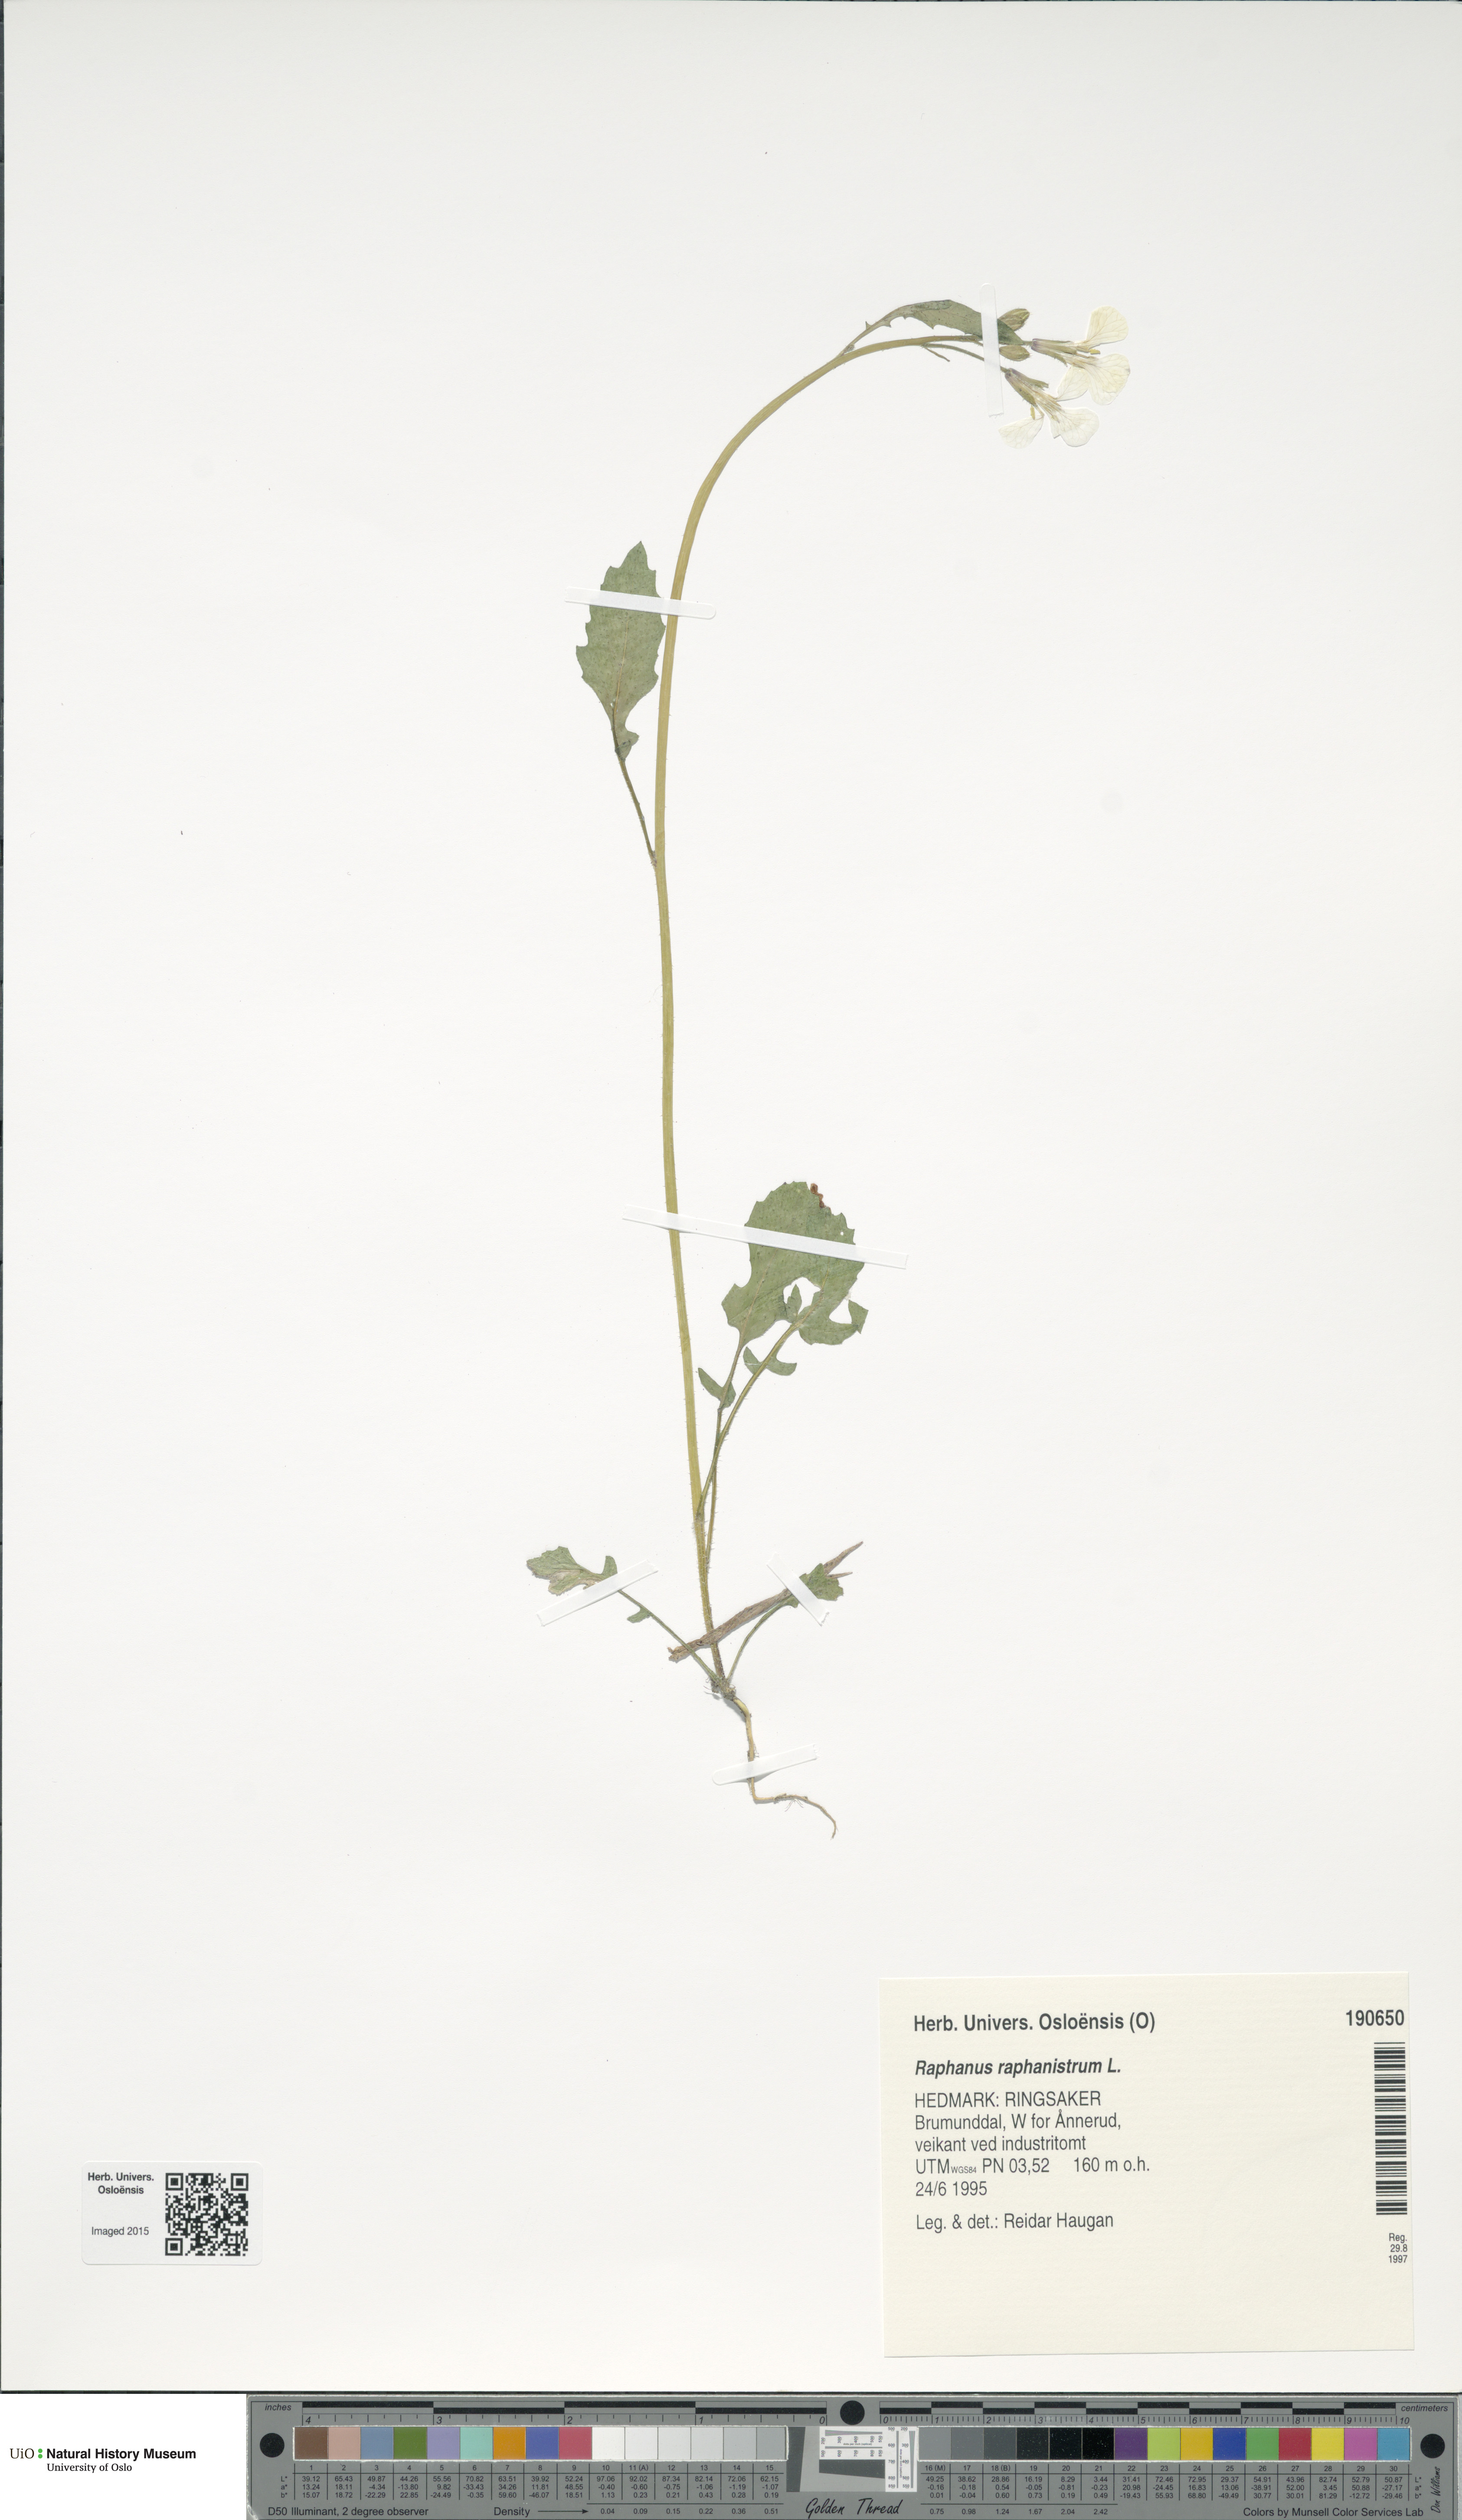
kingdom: Plantae
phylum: Tracheophyta
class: Magnoliopsida
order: Brassicales
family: Brassicaceae
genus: Raphanus
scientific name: Raphanus raphanistrum
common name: Wild radish
